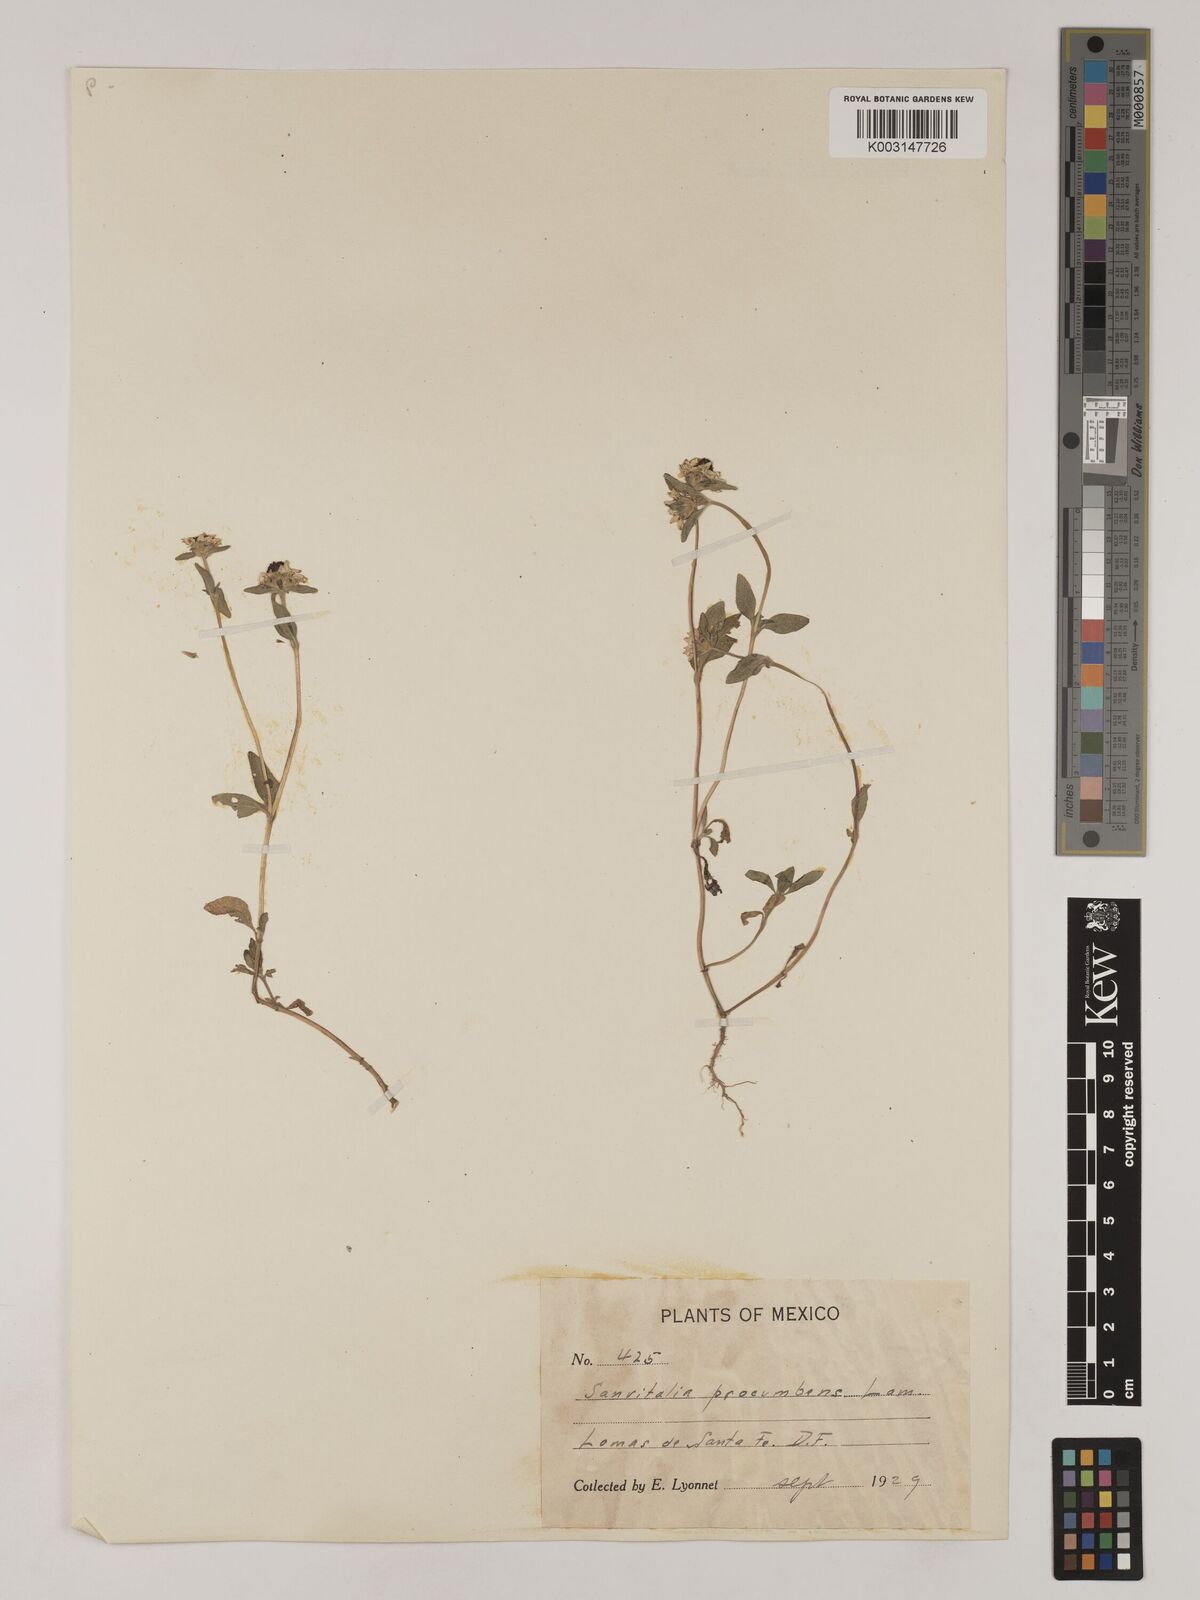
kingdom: Plantae
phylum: Tracheophyta
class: Magnoliopsida
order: Asterales
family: Asteraceae
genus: Sanvitalia
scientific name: Sanvitalia procumbens
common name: Mexican creeping zinnia
